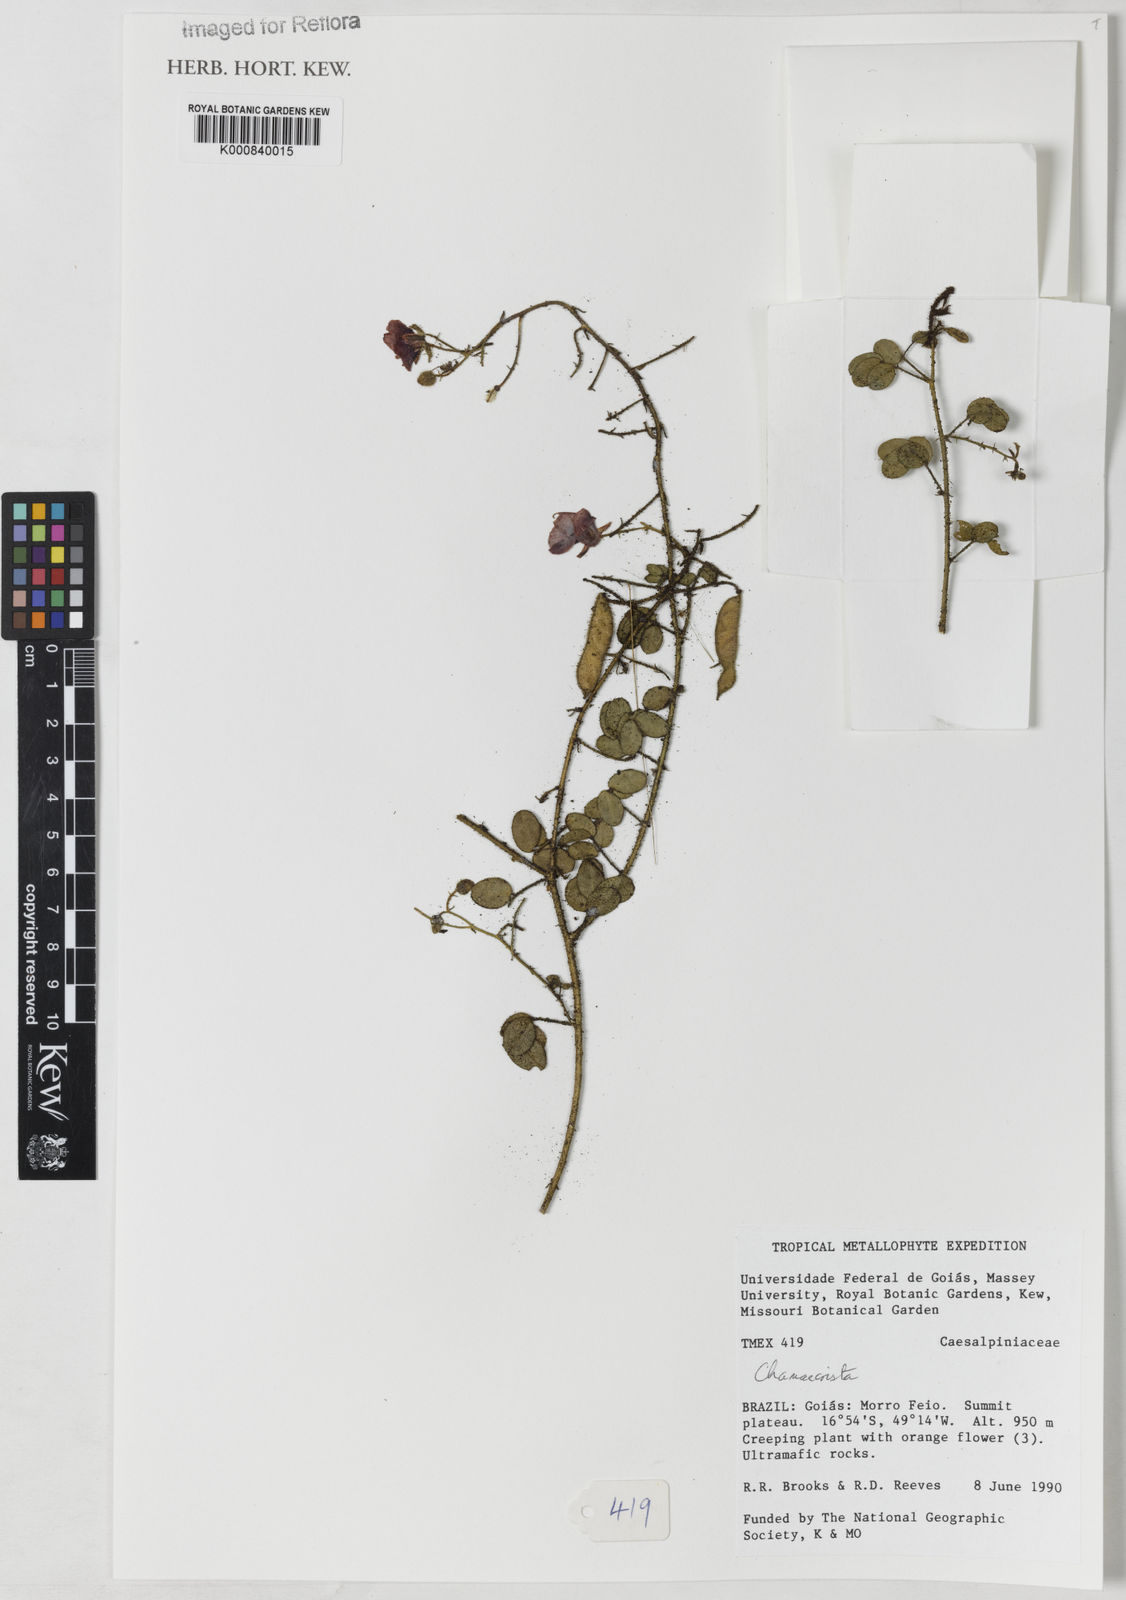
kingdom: Plantae
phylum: Tracheophyta
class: Magnoliopsida
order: Fabales
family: Fabaceae
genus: Chamaecrista
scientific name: Chamaecrista fagonioides
